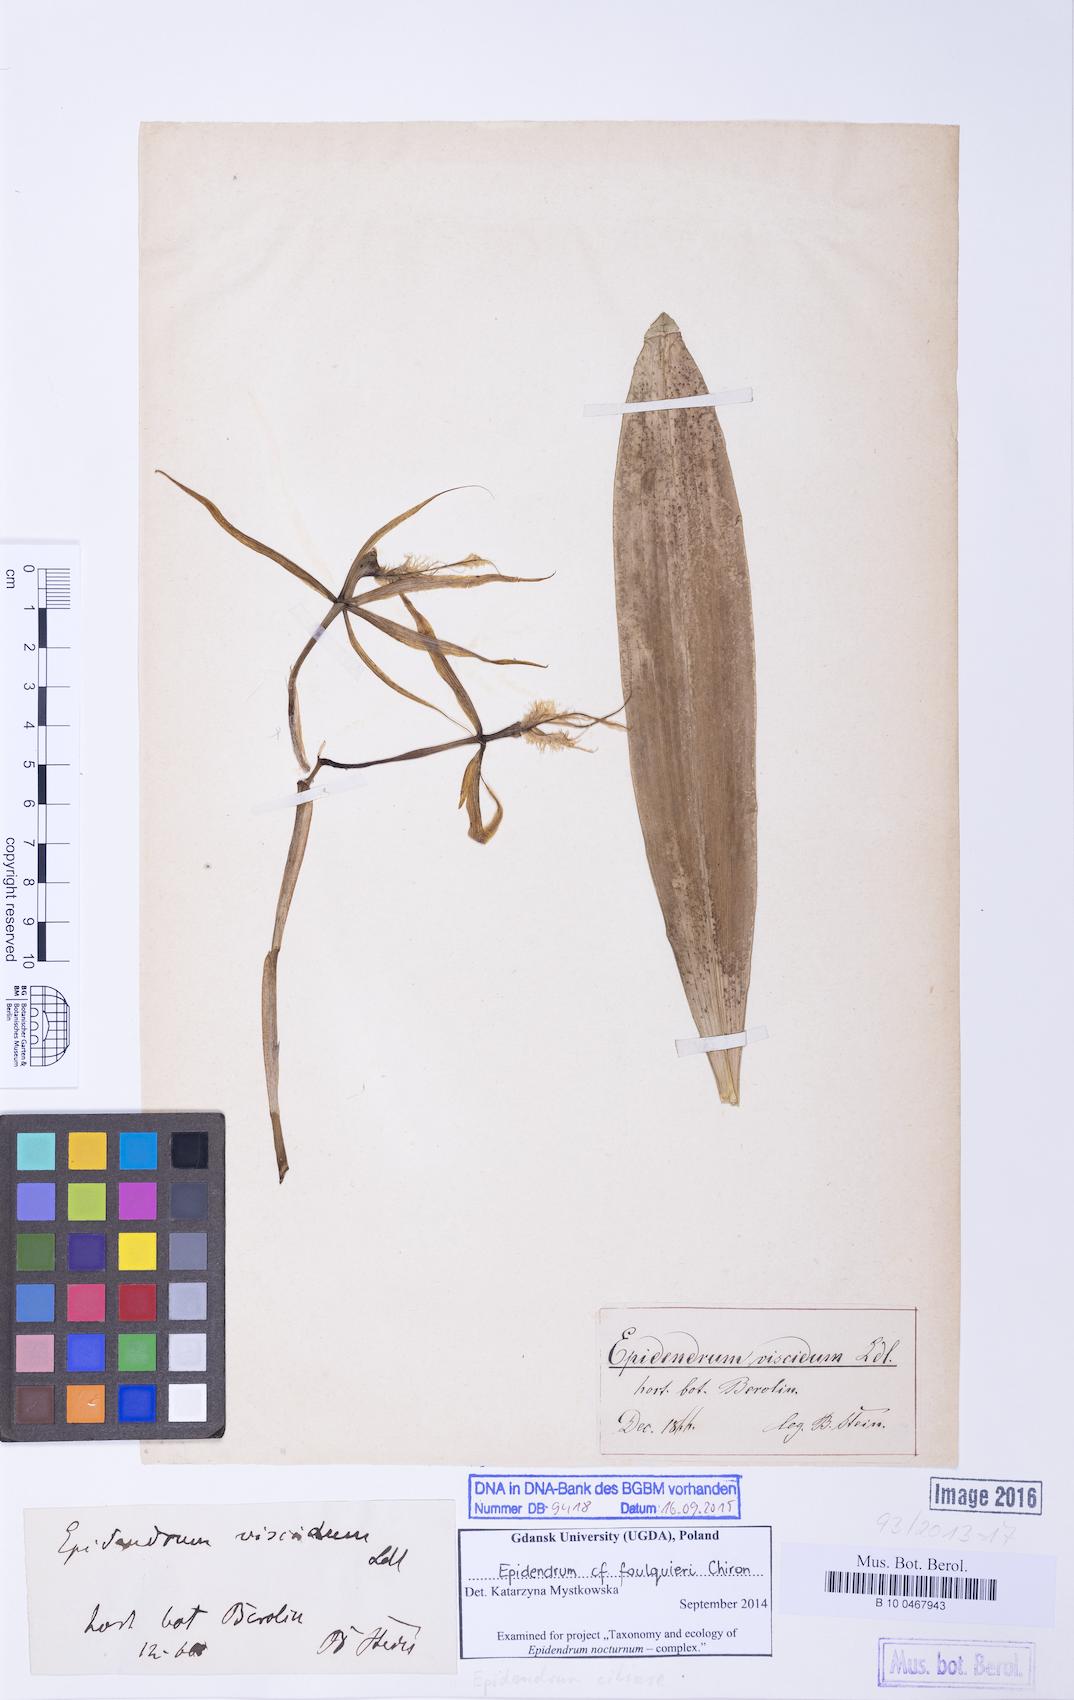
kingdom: Plantae
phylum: Tracheophyta
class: Liliopsida
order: Asparagales
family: Orchidaceae
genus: Epidendrum
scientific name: Epidendrum foulquieri
